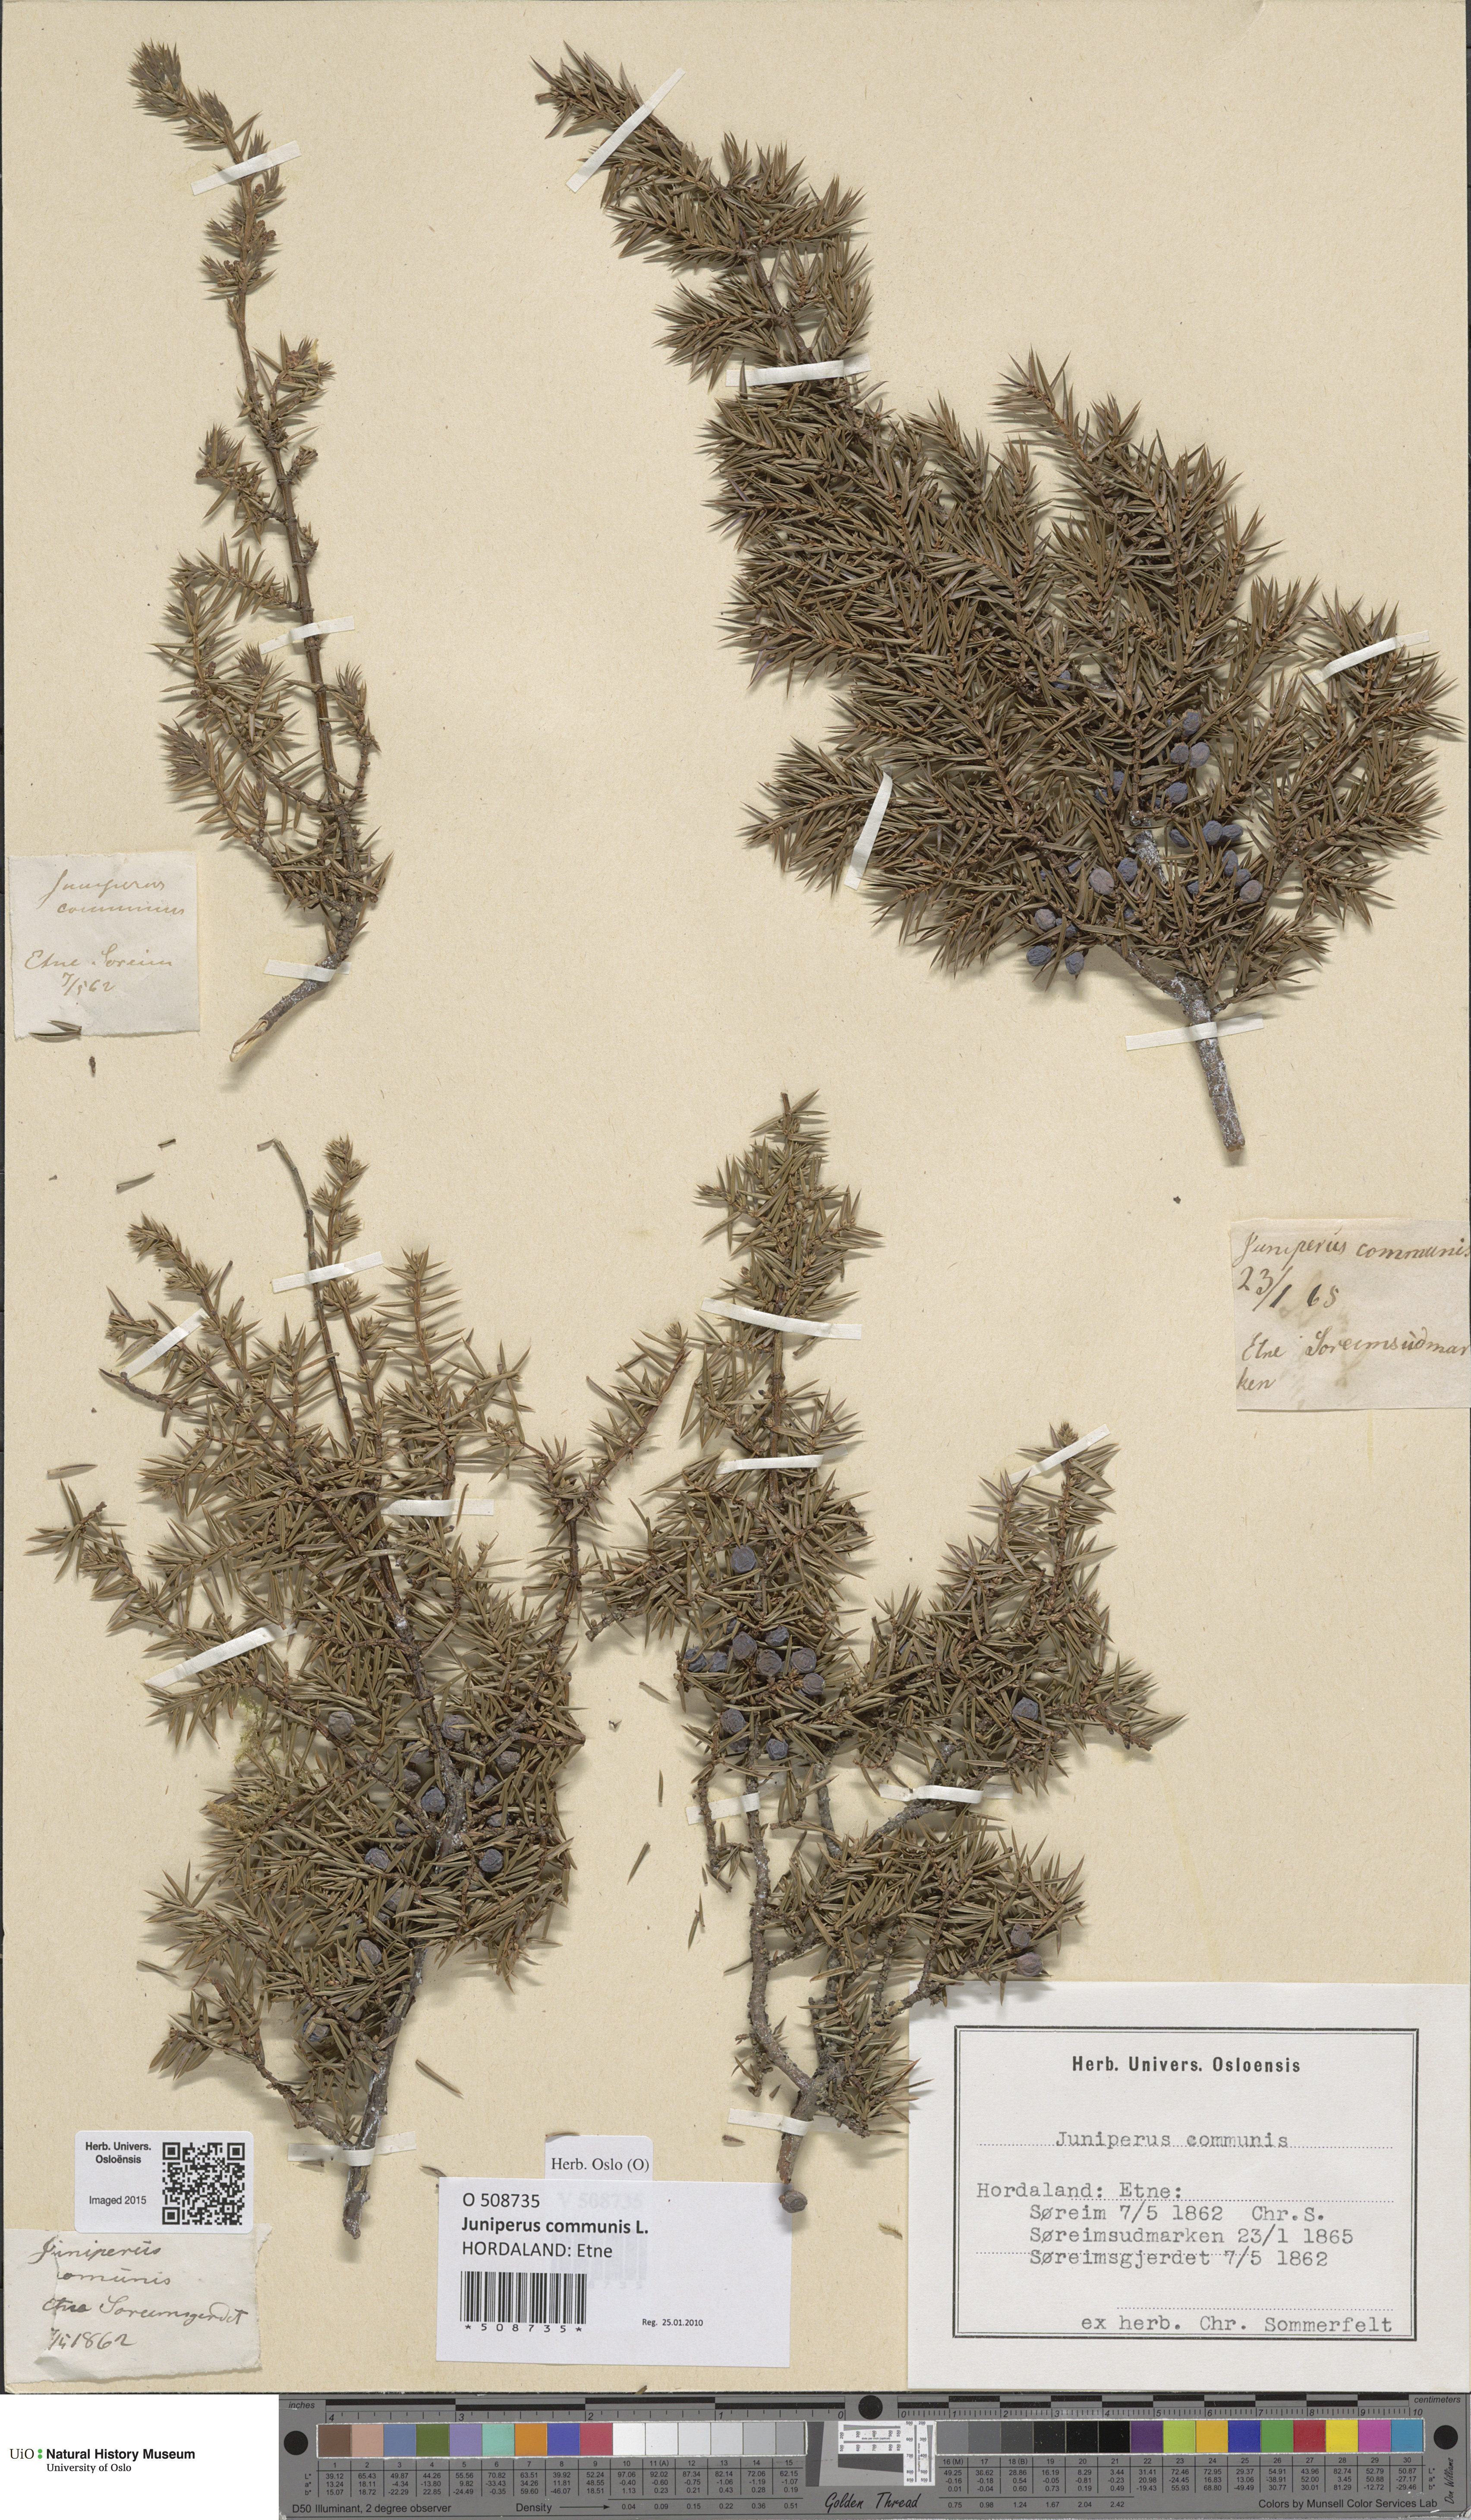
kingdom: Plantae
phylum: Tracheophyta
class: Pinopsida
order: Pinales
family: Cupressaceae
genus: Juniperus
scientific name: Juniperus communis
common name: Common juniper
